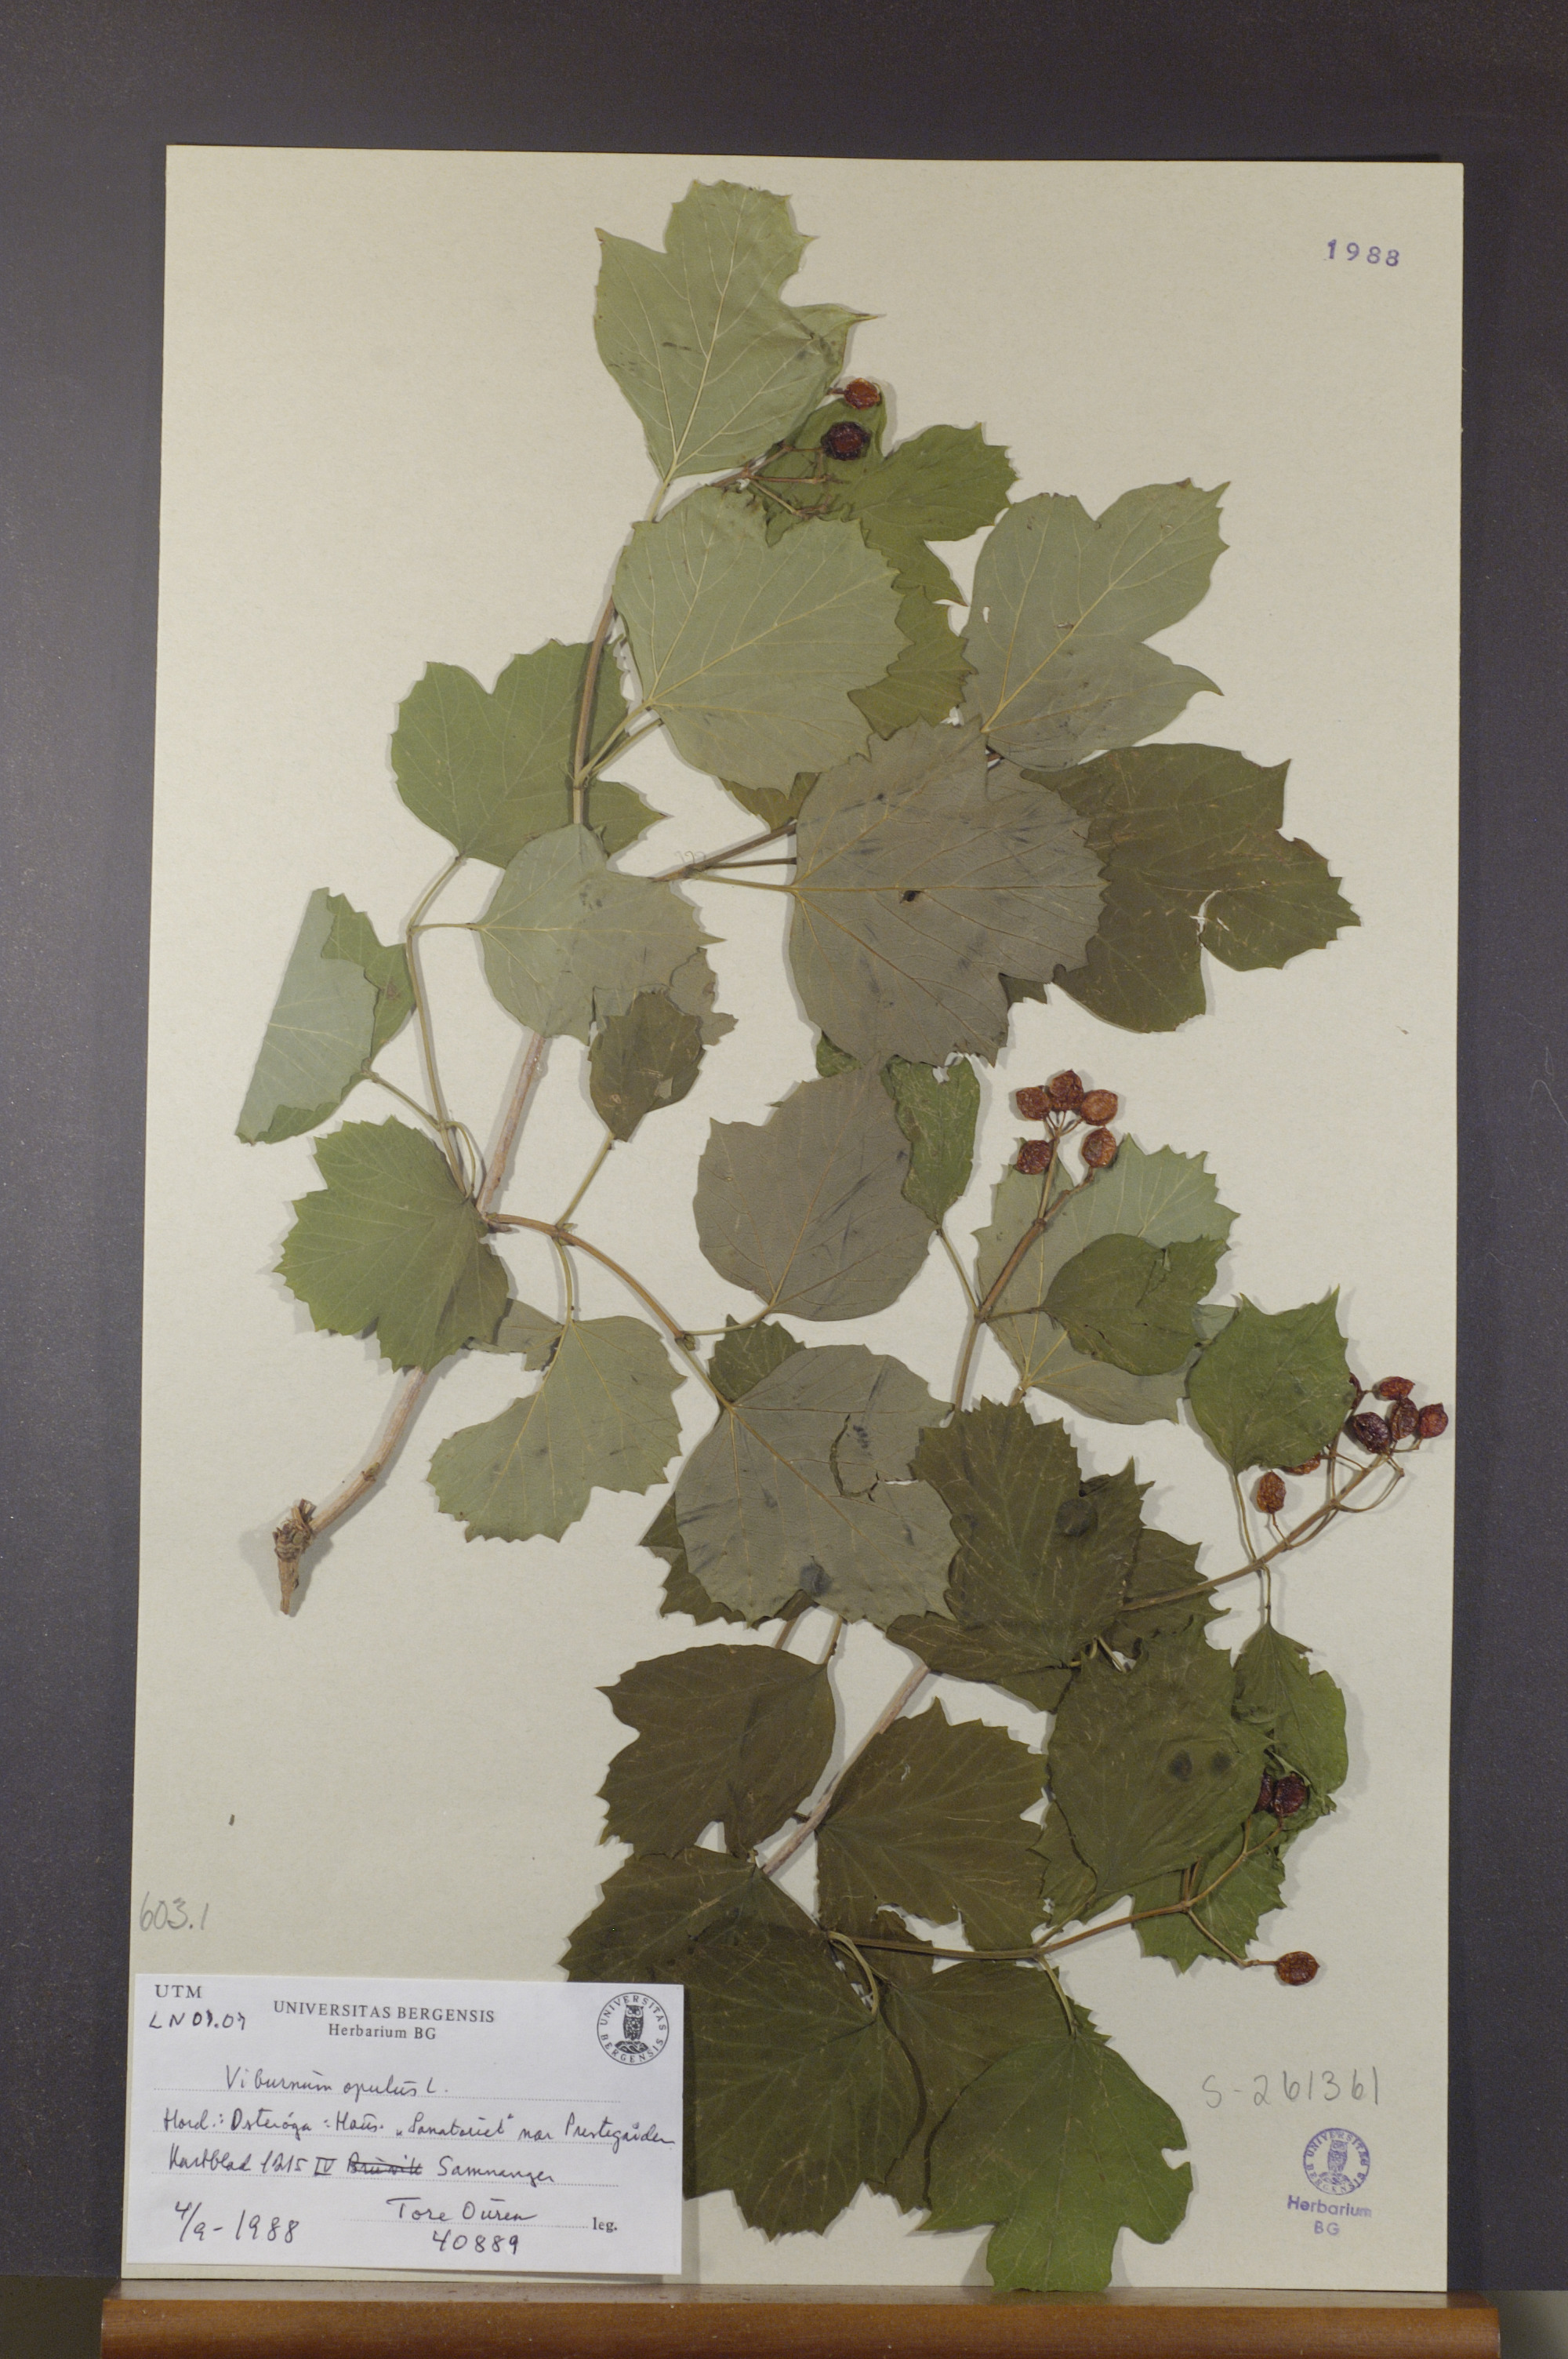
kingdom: Plantae
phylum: Tracheophyta
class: Magnoliopsida
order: Dipsacales
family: Viburnaceae
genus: Viburnum
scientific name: Viburnum opulus
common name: Guelder-rose
